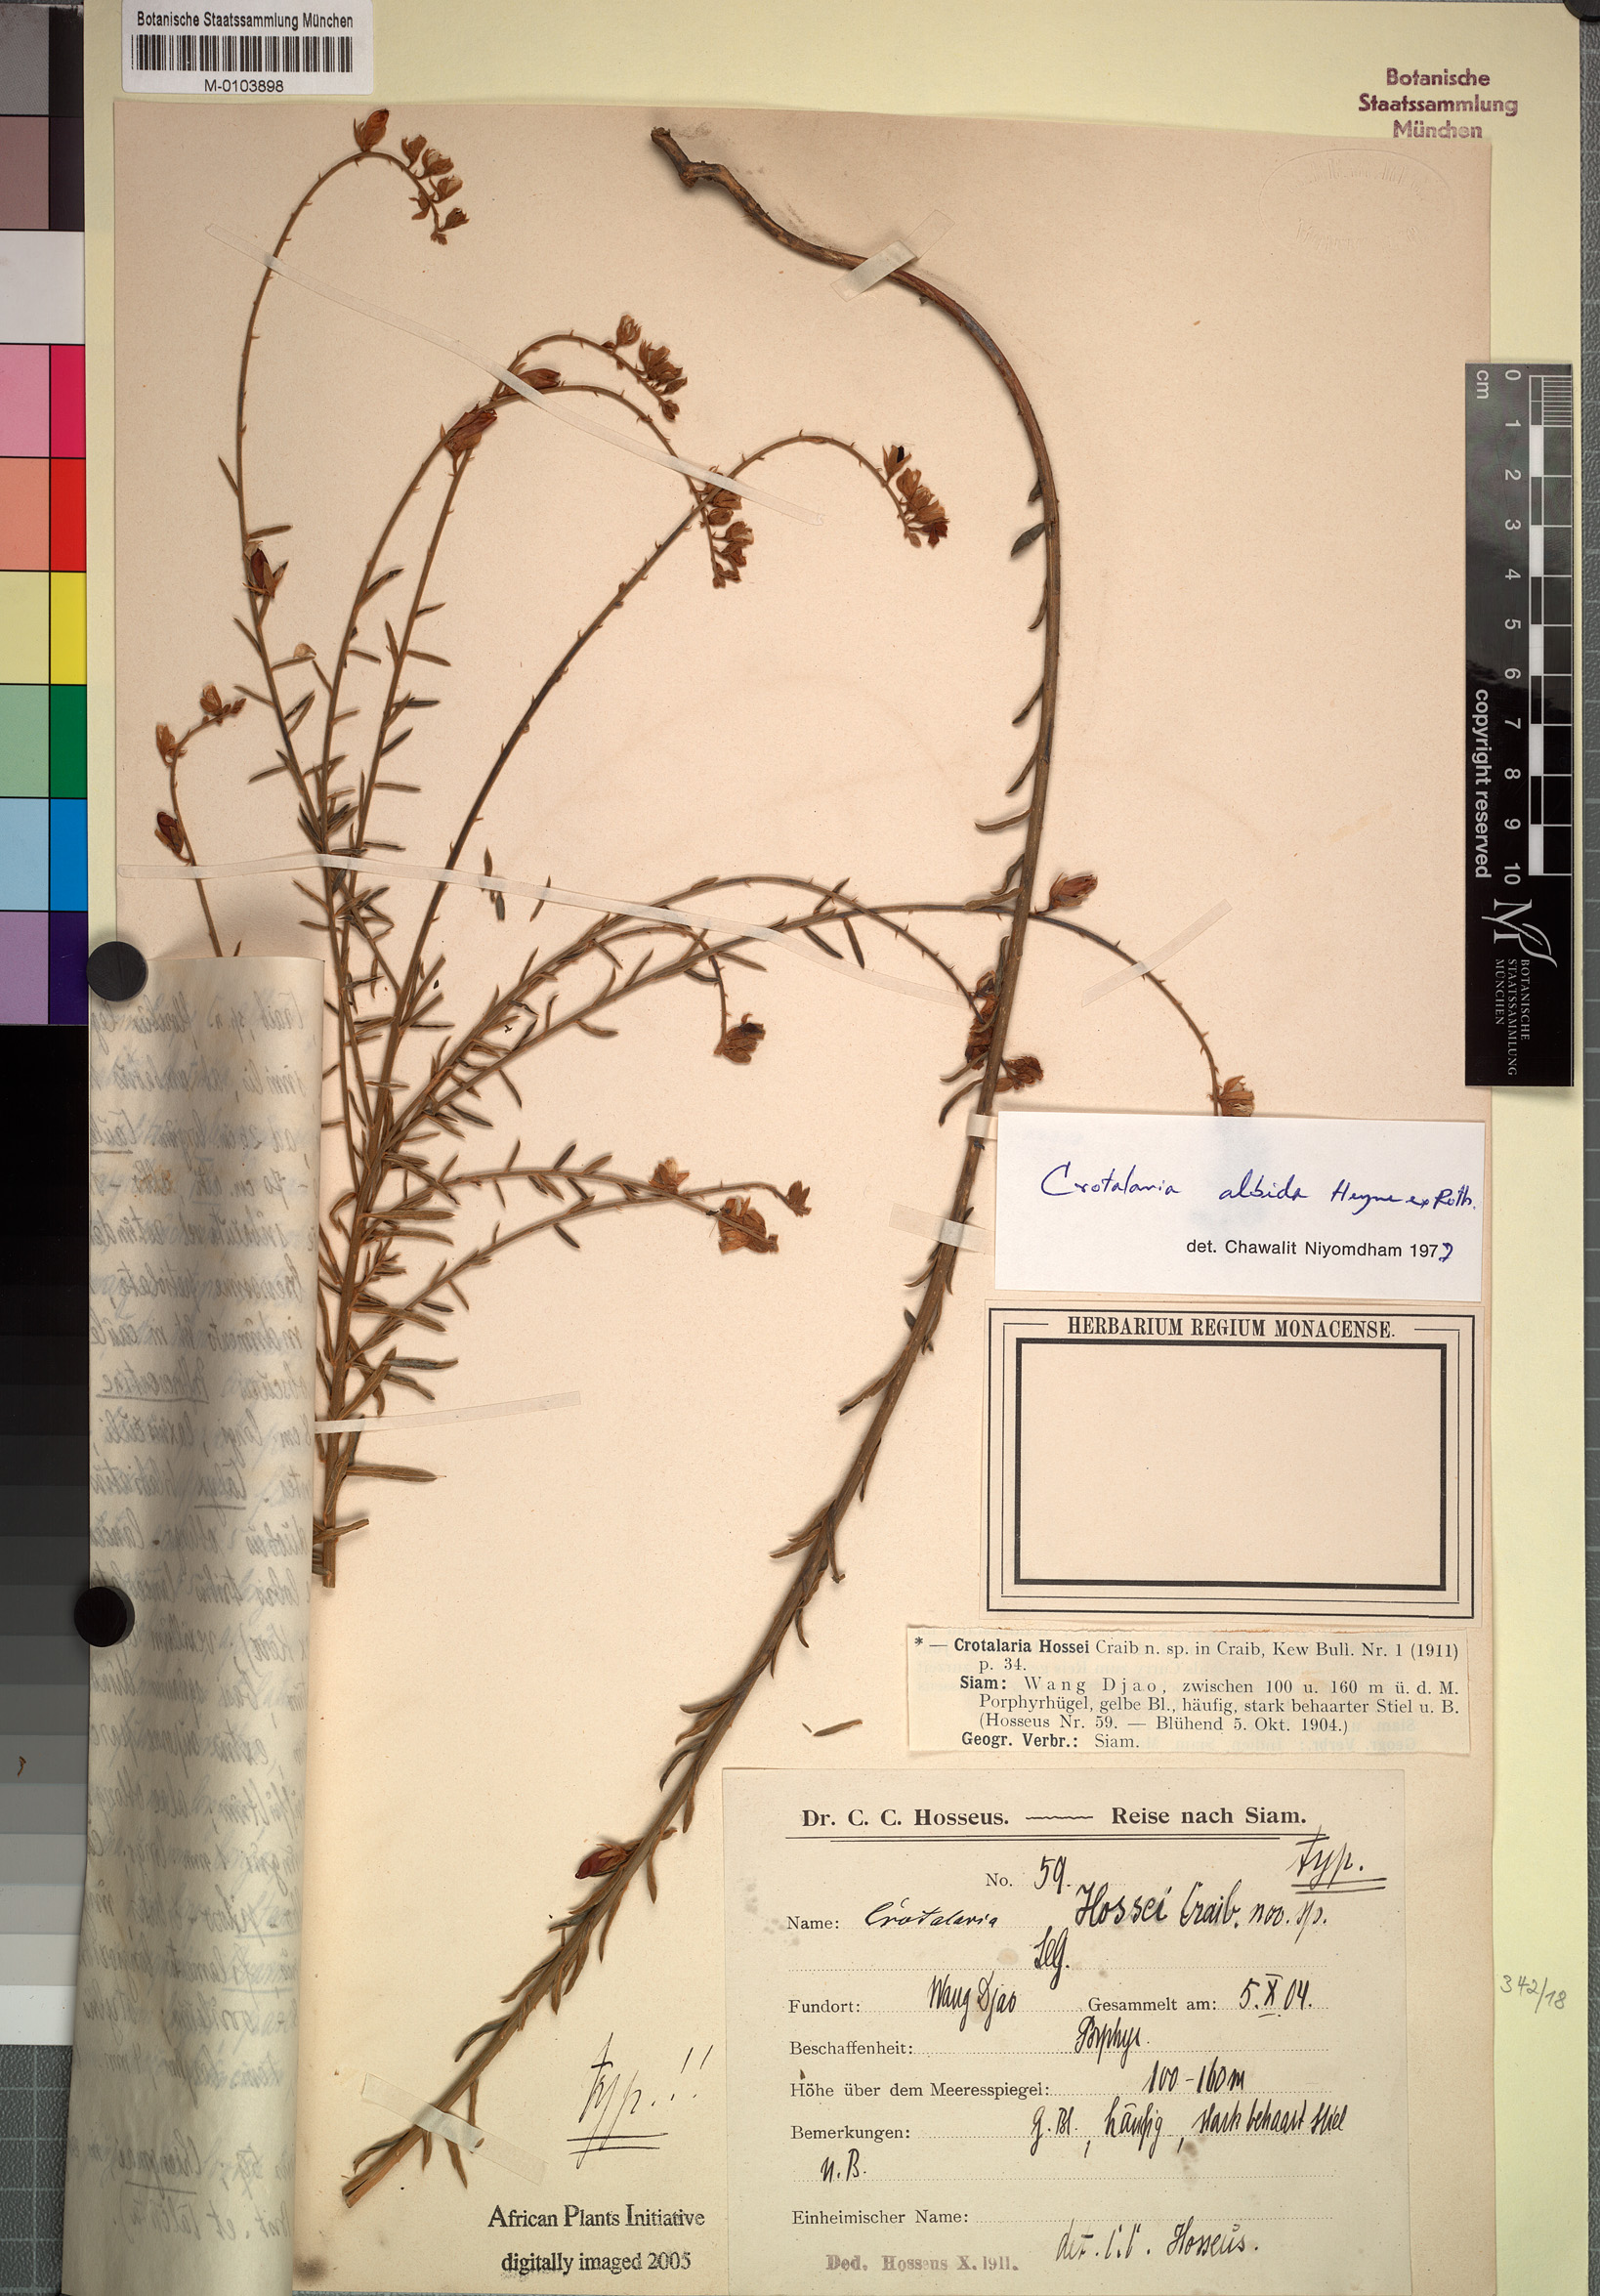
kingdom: Plantae
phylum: Tracheophyta
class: Magnoliopsida
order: Fabales
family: Fabaceae
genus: Crotalaria
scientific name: Crotalaria albida
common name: Taiwan crotalaria
